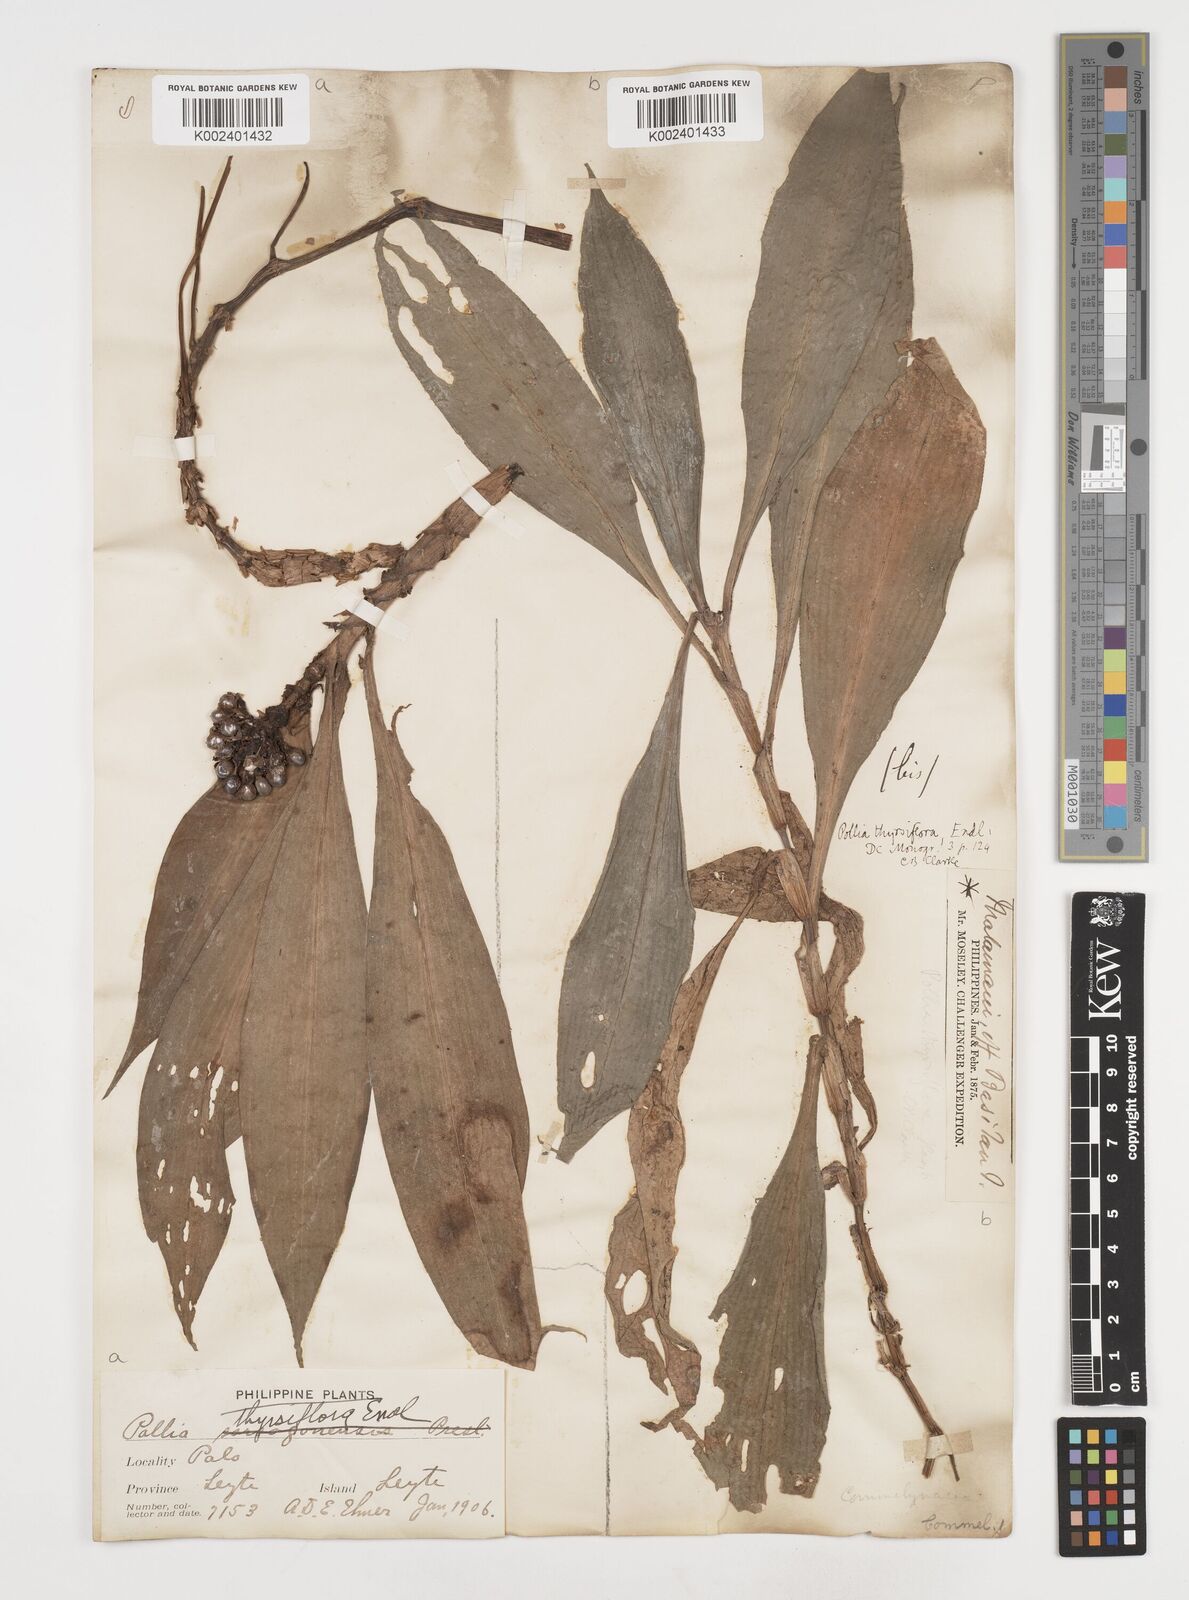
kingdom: Plantae
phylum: Tracheophyta
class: Liliopsida
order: Commelinales
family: Commelinaceae
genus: Pollia
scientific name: Pollia thyrsiflora
